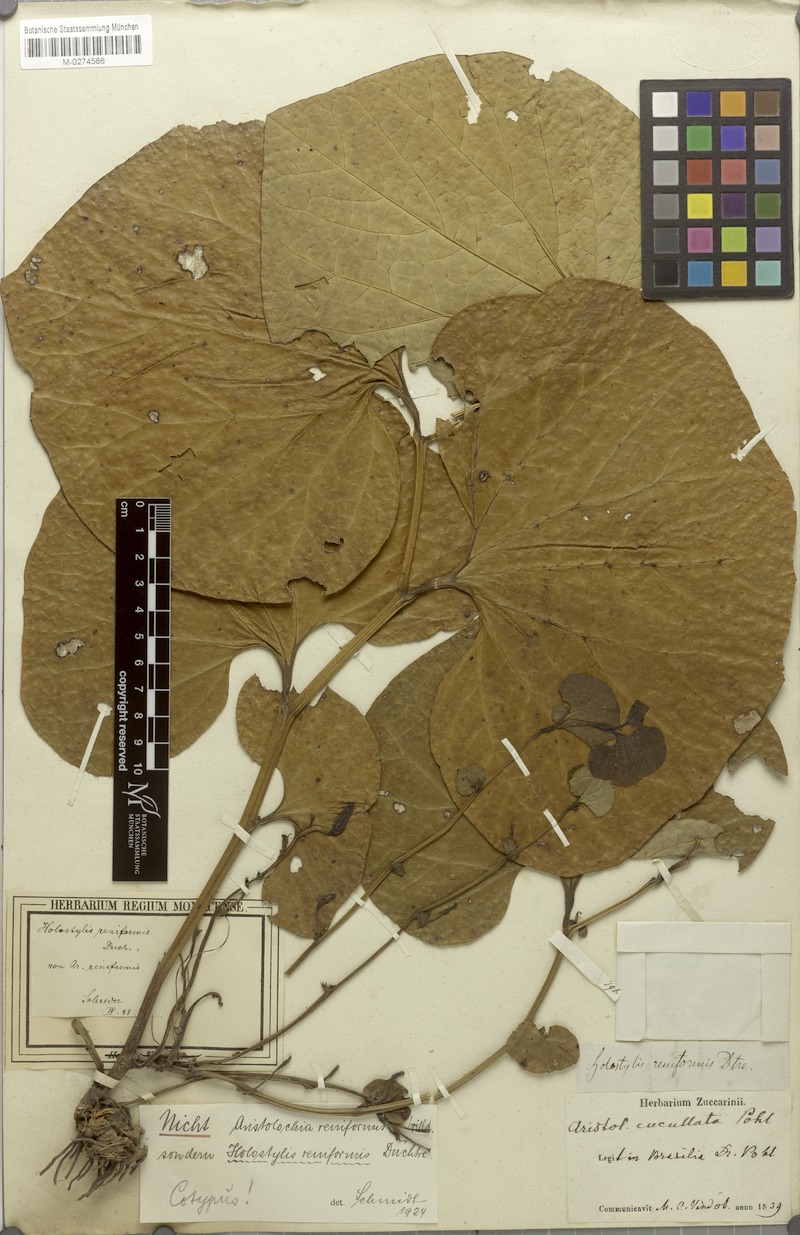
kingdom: Plantae
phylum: Tracheophyta
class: Magnoliopsida
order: Piperales
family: Aristolochiaceae
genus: Aristolochia
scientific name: Aristolochia pyriflora
